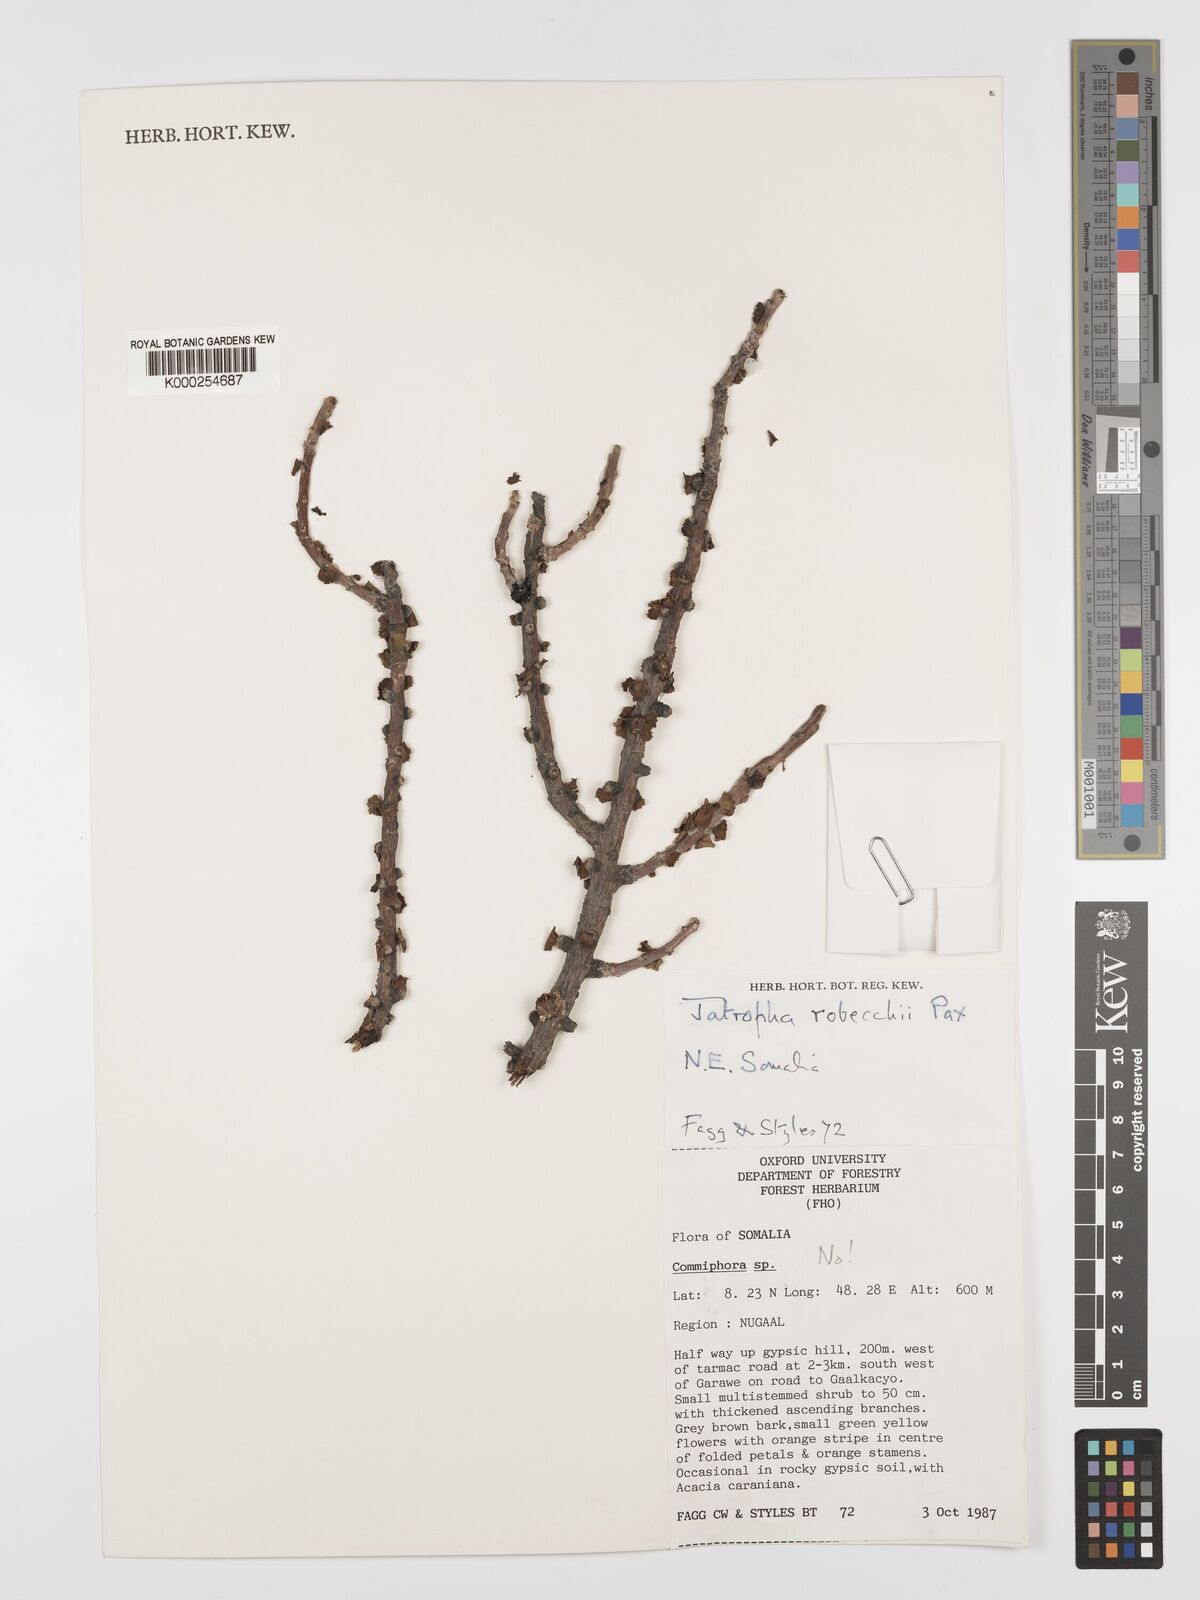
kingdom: Plantae
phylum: Tracheophyta
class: Magnoliopsida
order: Malpighiales
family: Euphorbiaceae
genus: Jatropha
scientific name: Jatropha robecchii
